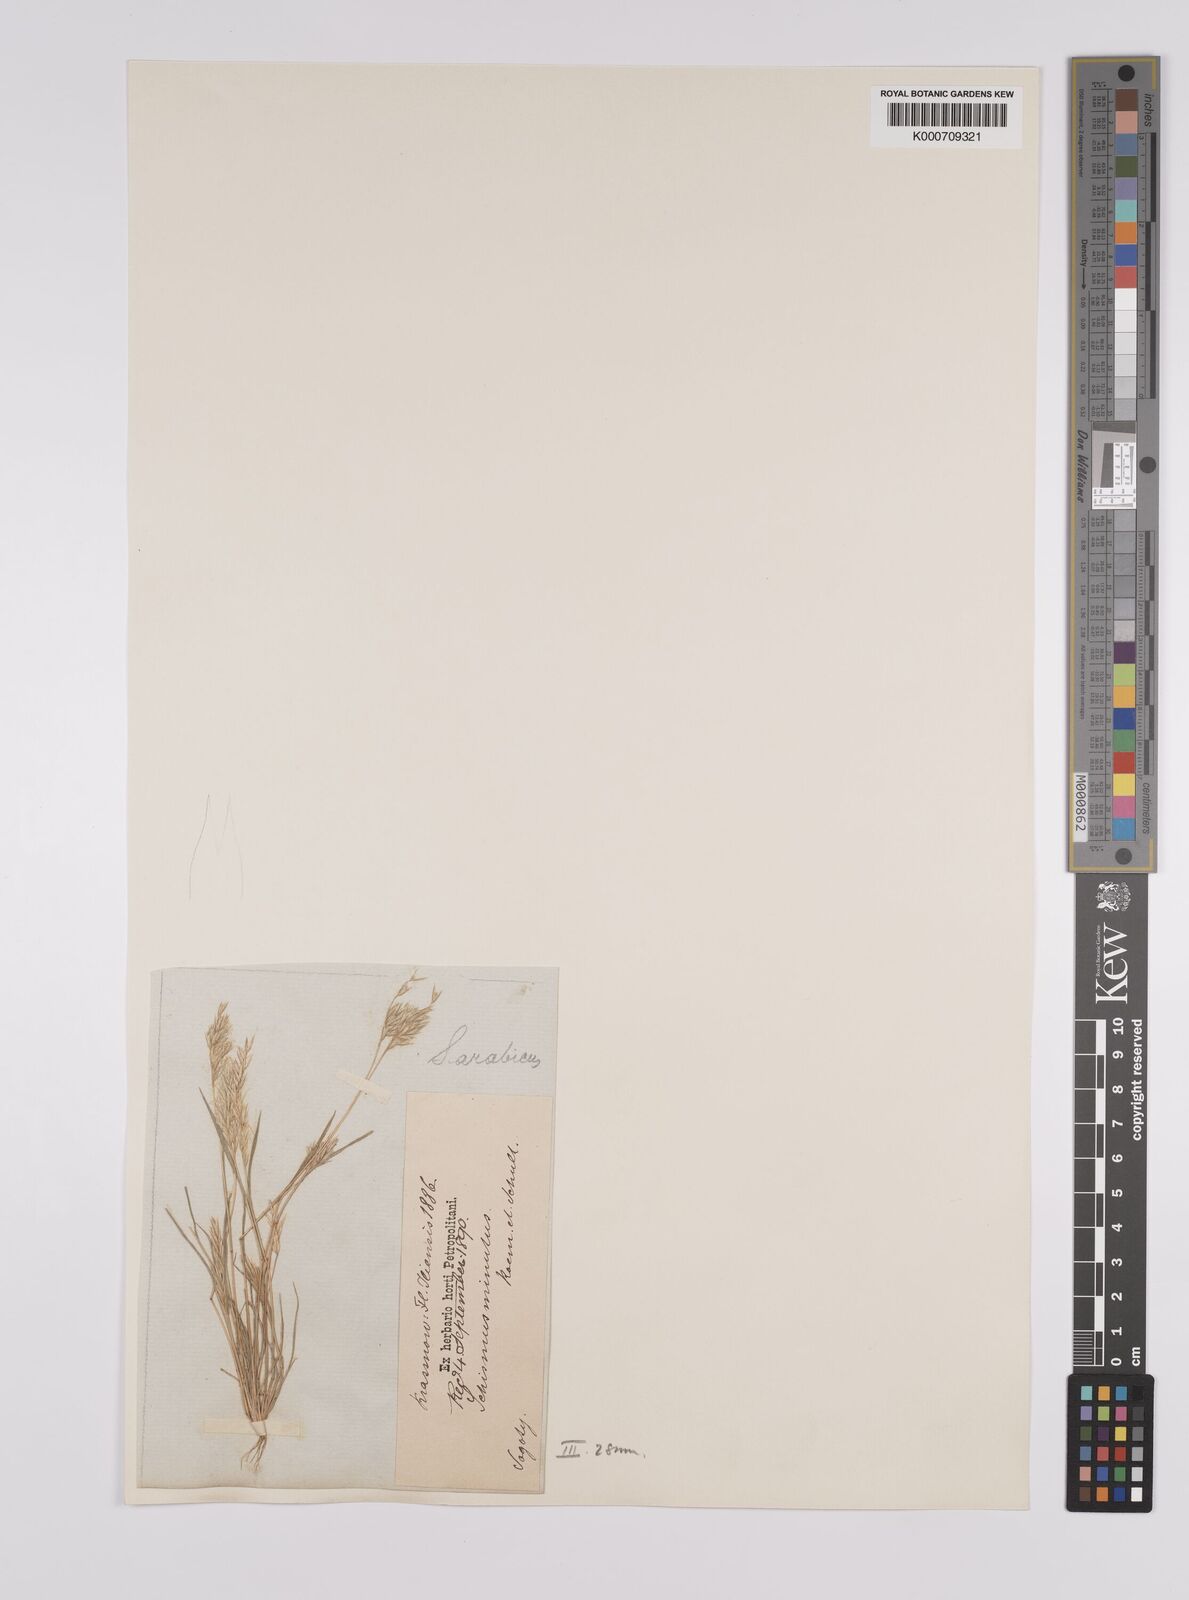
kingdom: Plantae
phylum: Tracheophyta
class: Liliopsida
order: Poales
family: Poaceae
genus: Schismus
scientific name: Schismus arabicus
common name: Arabian schismus
